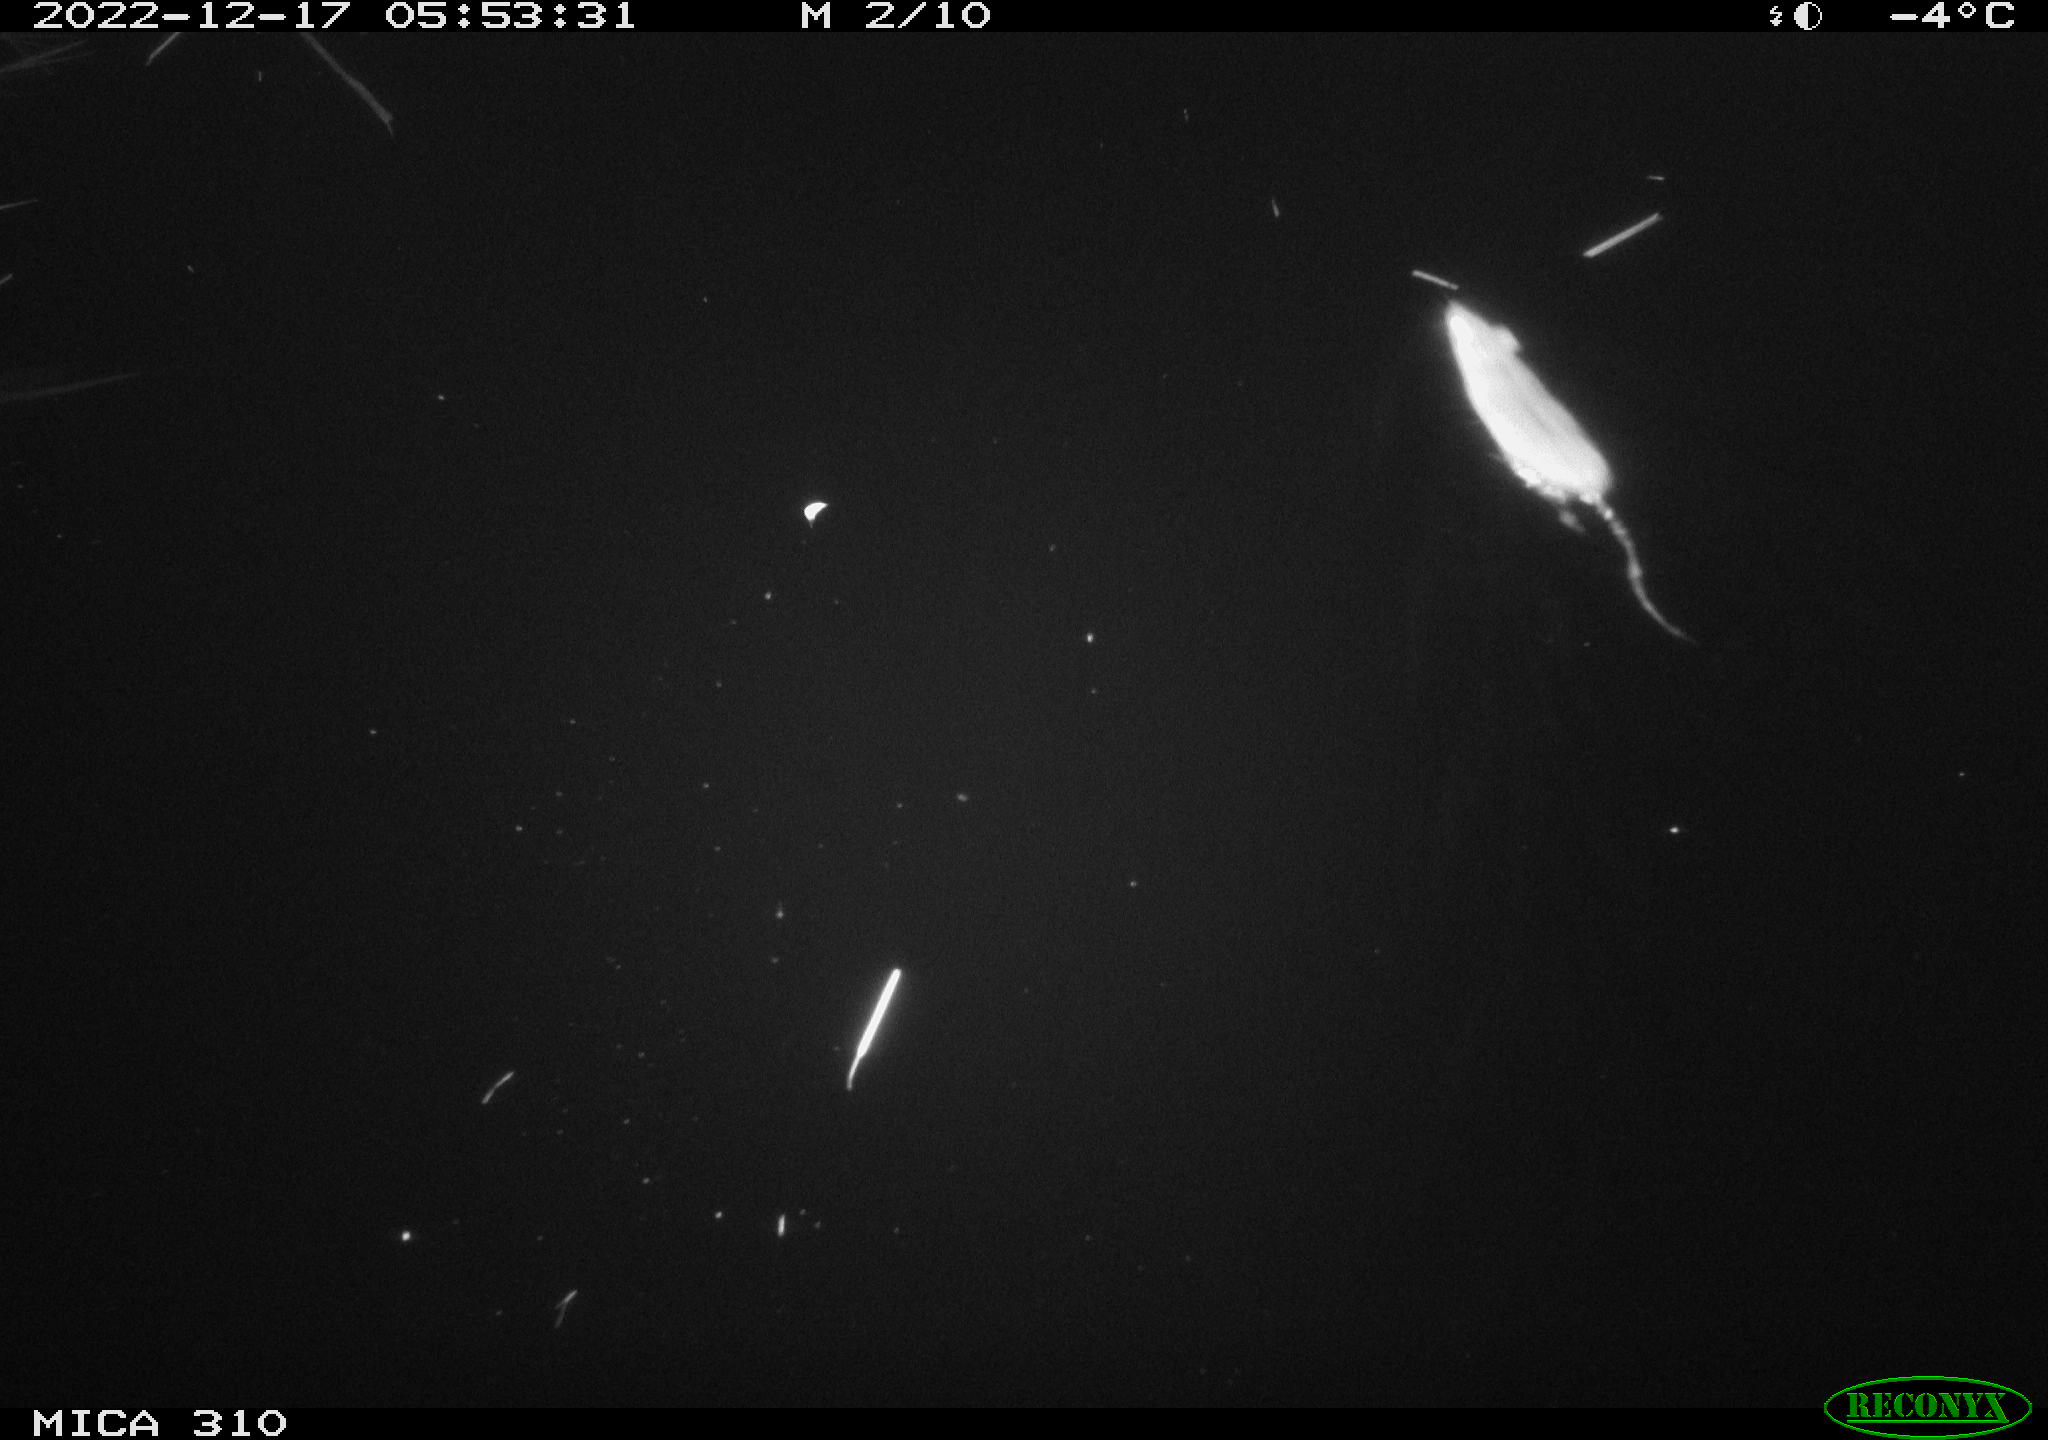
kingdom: Animalia
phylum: Chordata
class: Mammalia
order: Rodentia
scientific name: Rodentia
